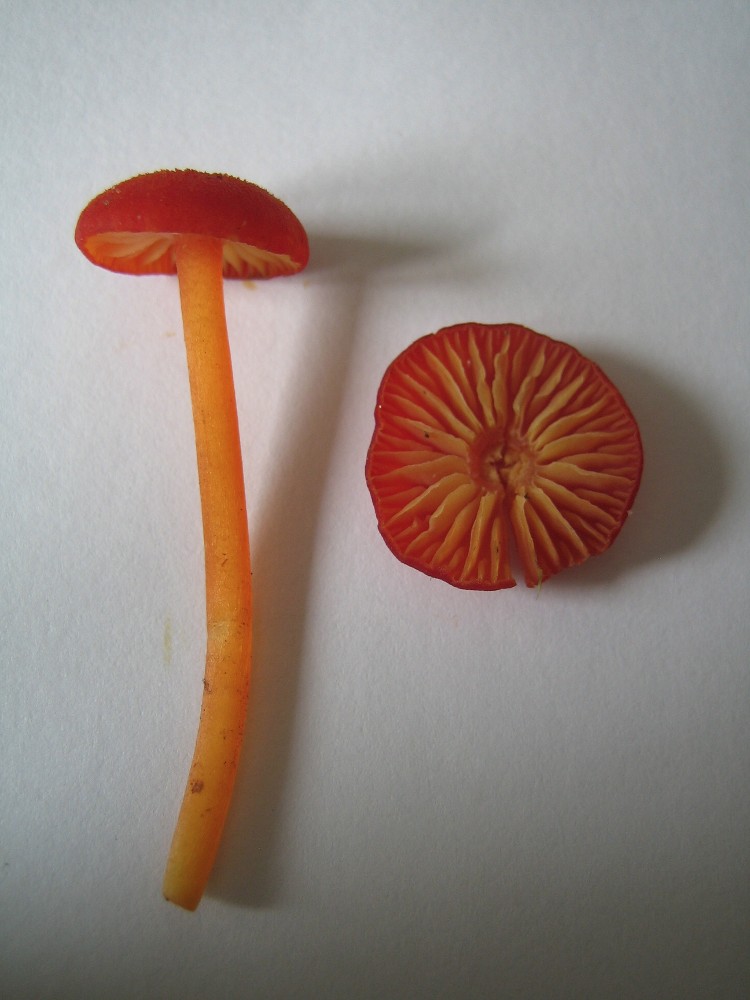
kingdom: Fungi
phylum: Basidiomycota
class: Agaricomycetes
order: Agaricales
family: Hygrophoraceae
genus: Hygrocybe
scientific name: Hygrocybe miniata
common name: mønje-vokshat
